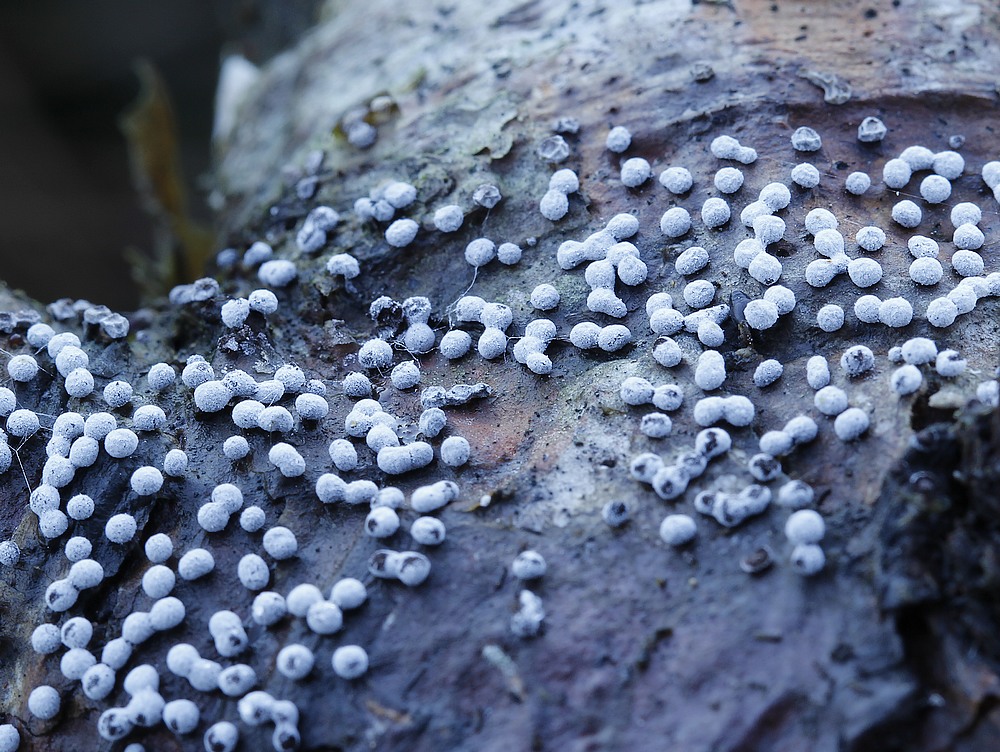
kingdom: Protozoa
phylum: Mycetozoa
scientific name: Mycetozoa
